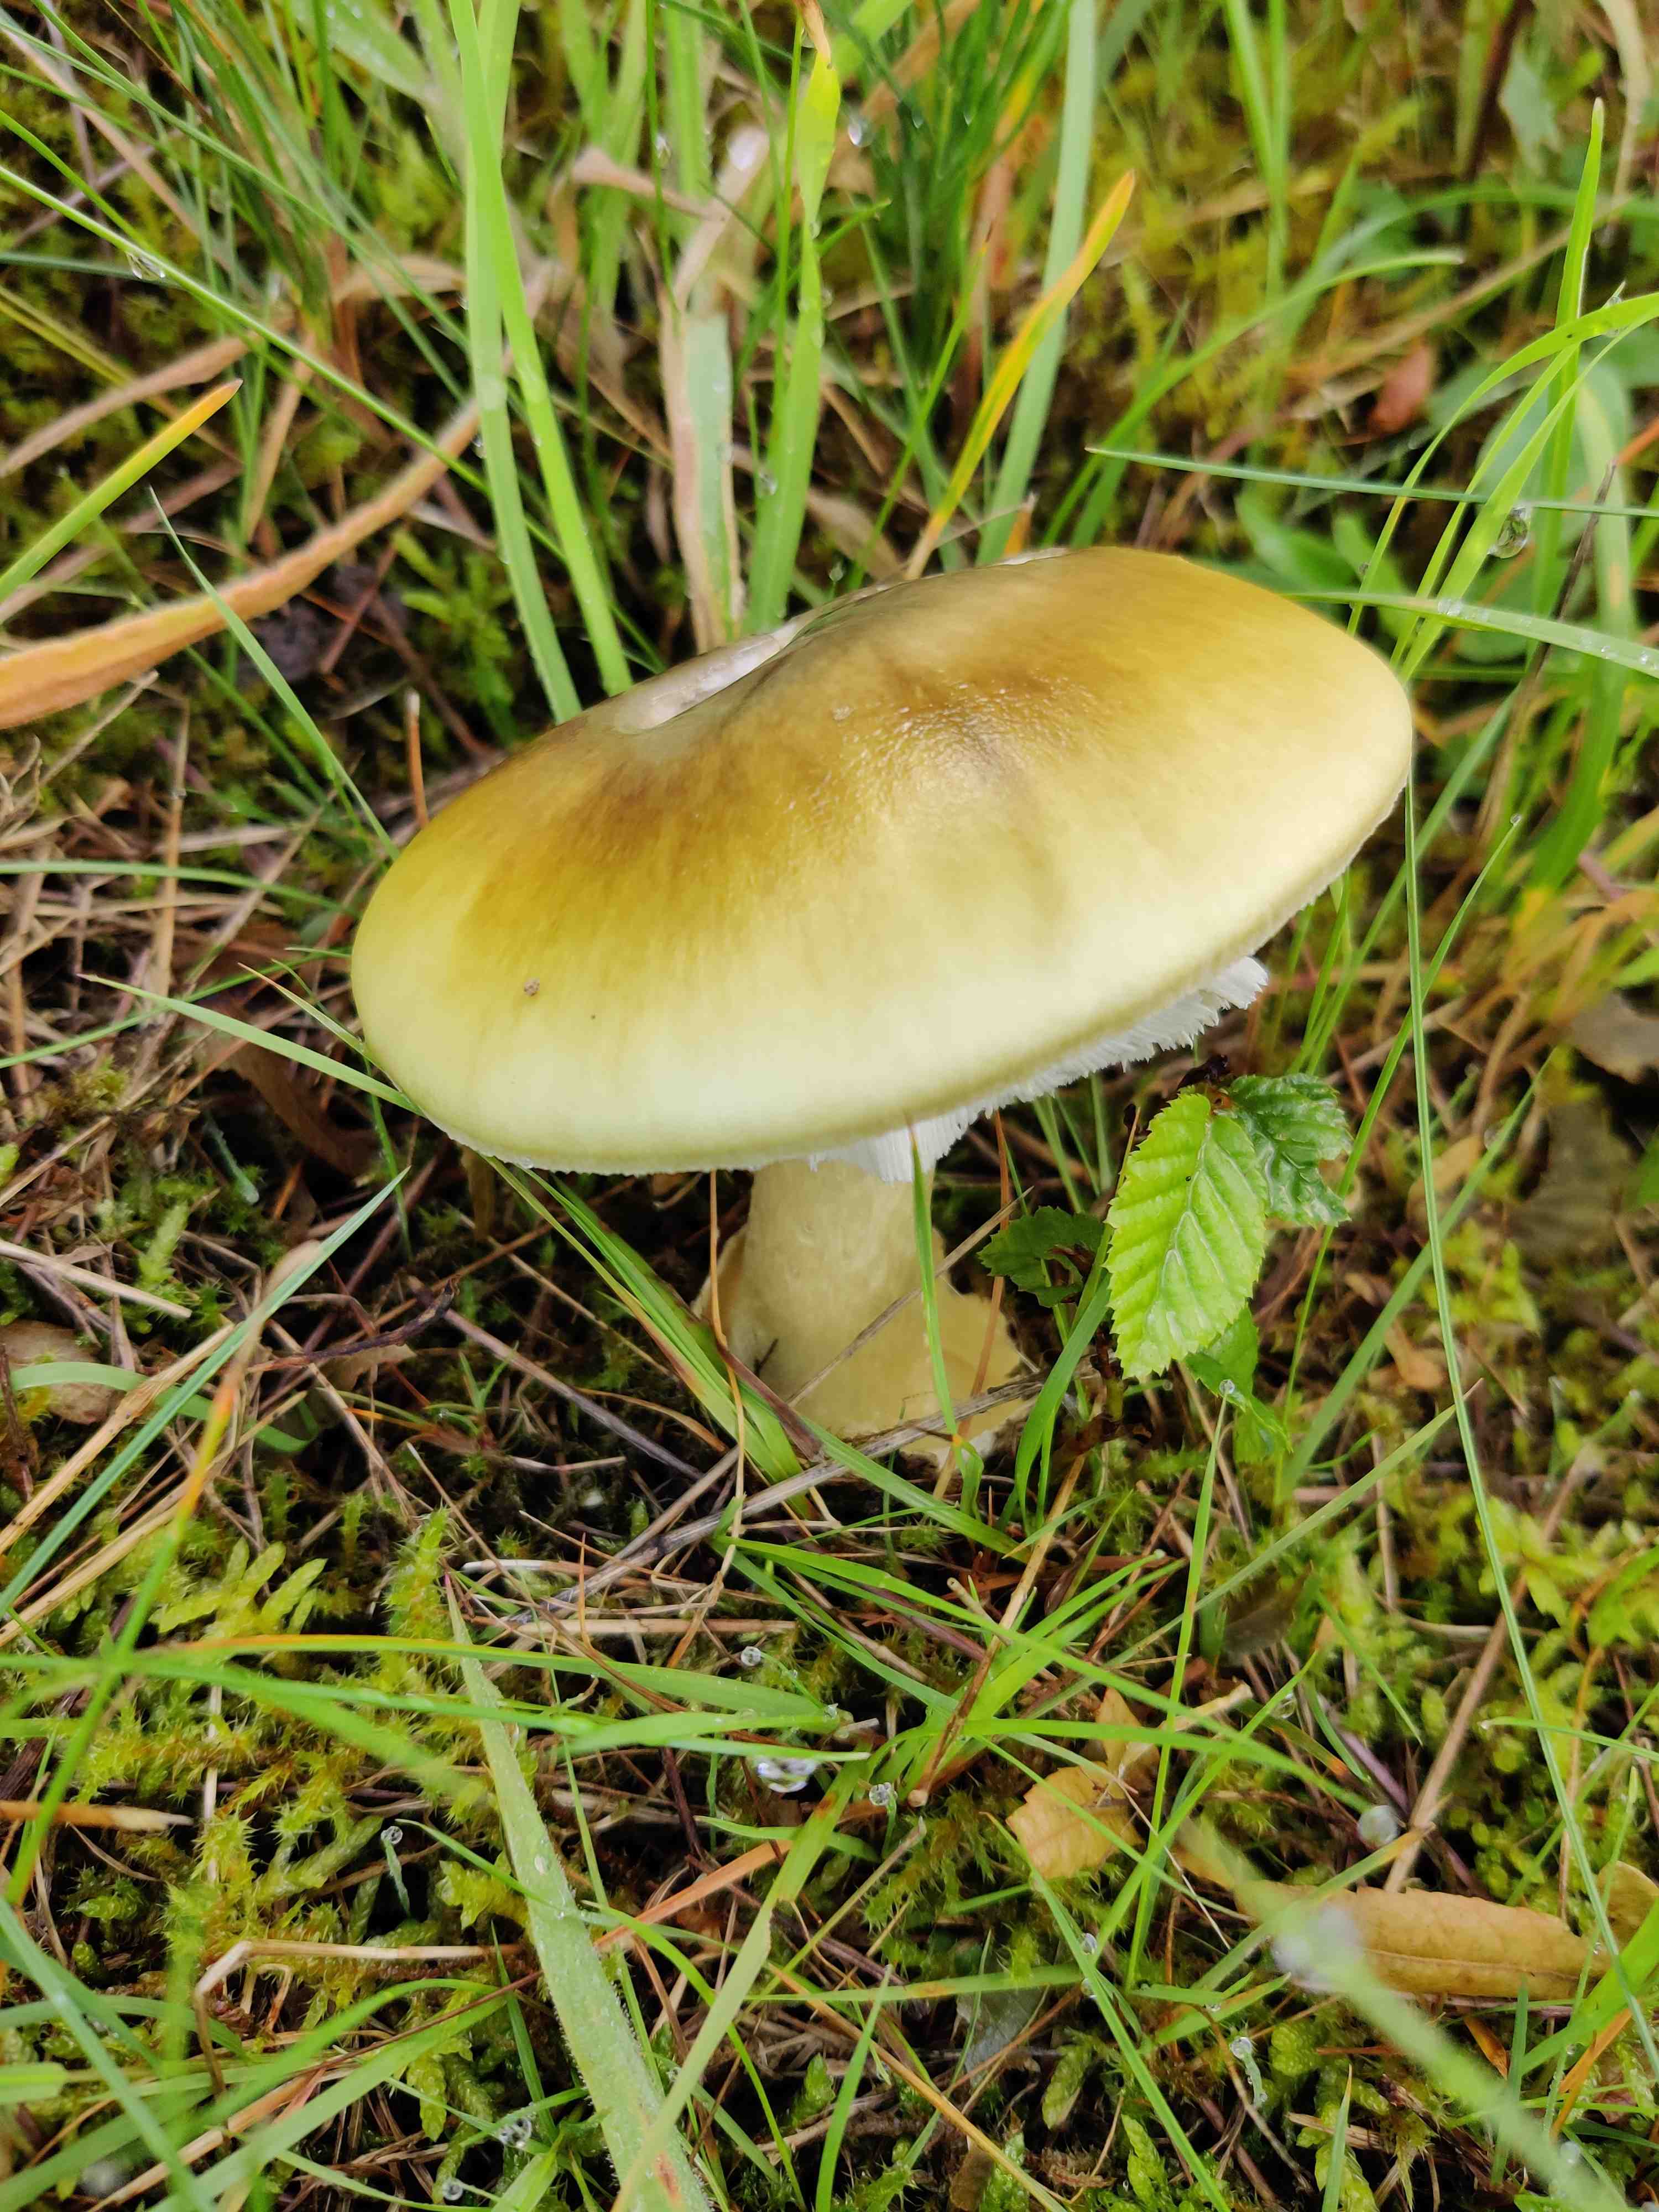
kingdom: Fungi
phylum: Basidiomycota
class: Agaricomycetes
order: Agaricales
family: Amanitaceae
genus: Amanita
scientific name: Amanita phalloides
